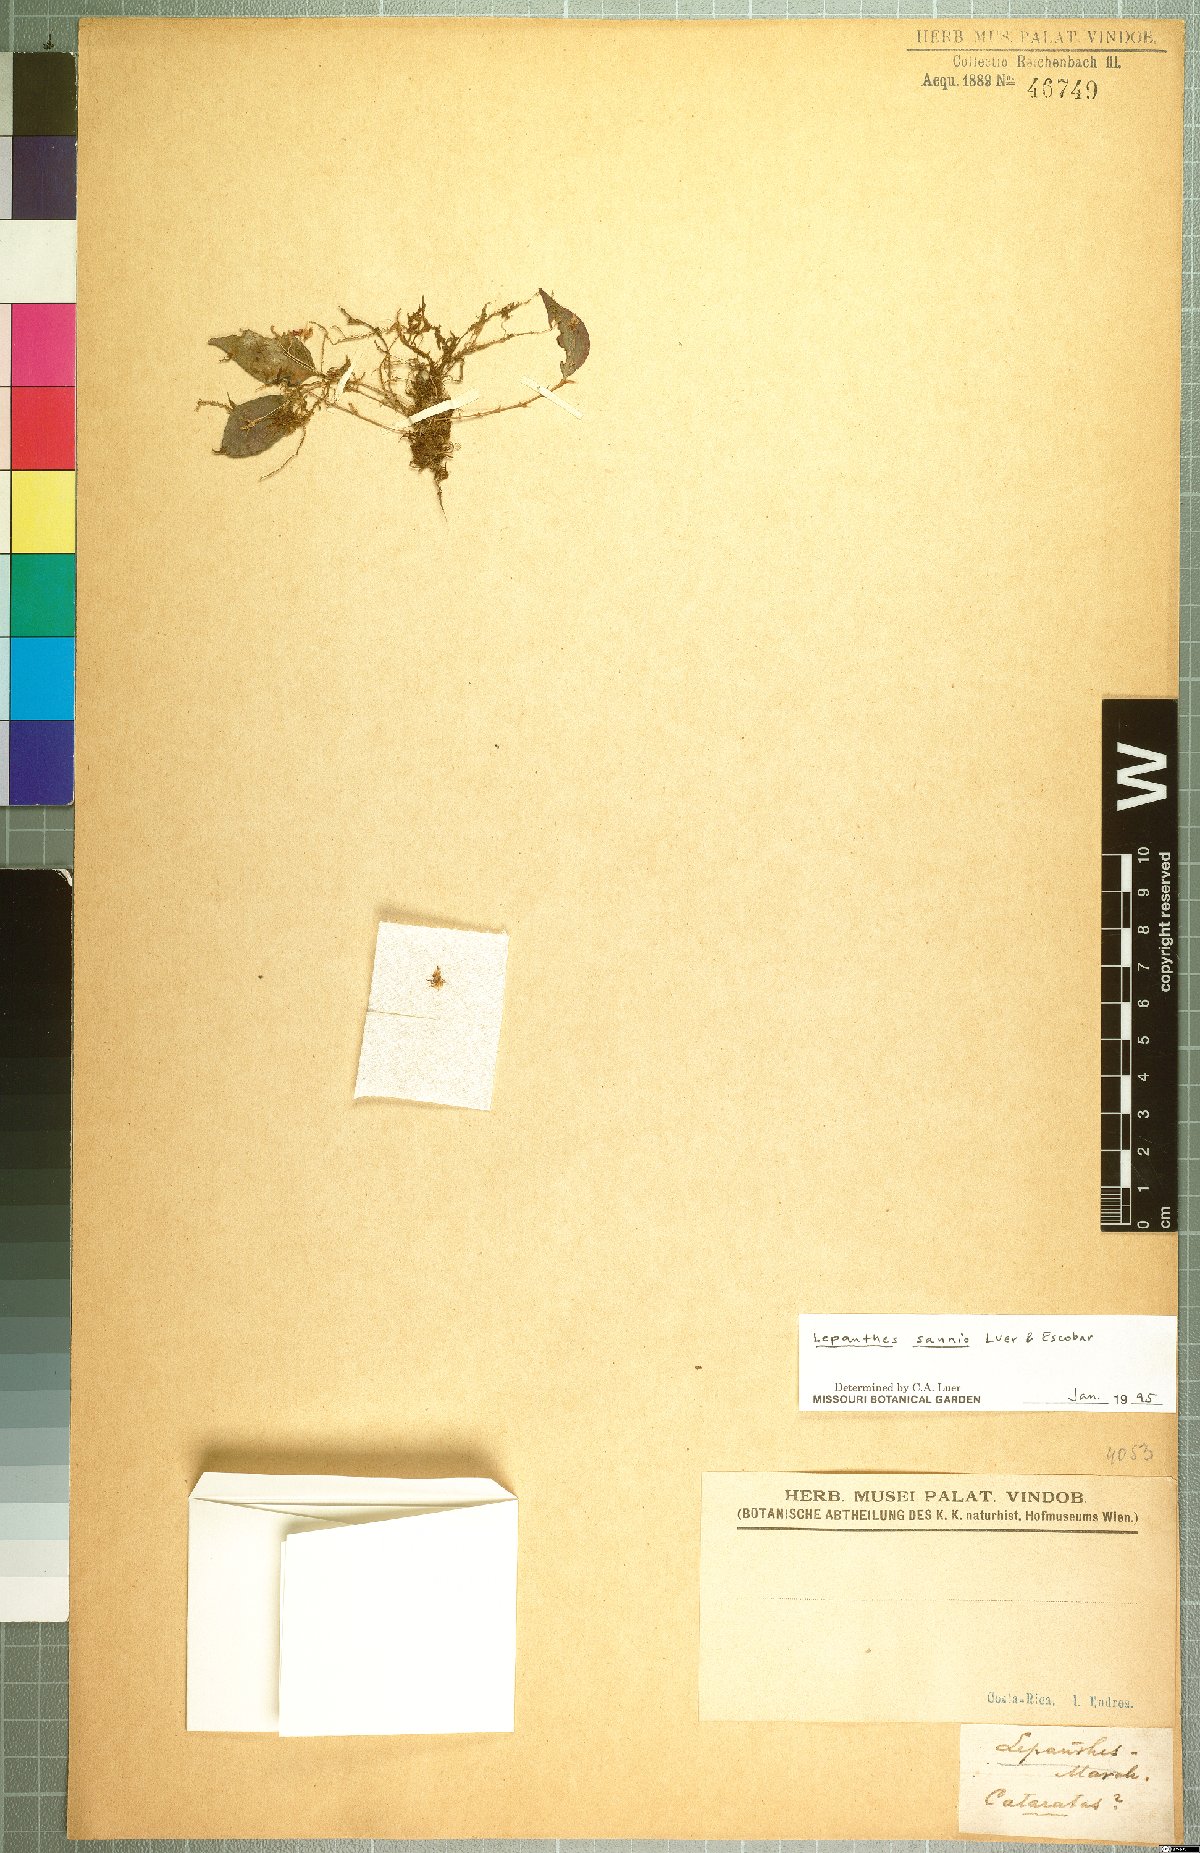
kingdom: Plantae
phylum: Tracheophyta
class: Liliopsida
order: Asparagales
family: Orchidaceae
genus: Lepanthes
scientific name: Lepanthes sannio
